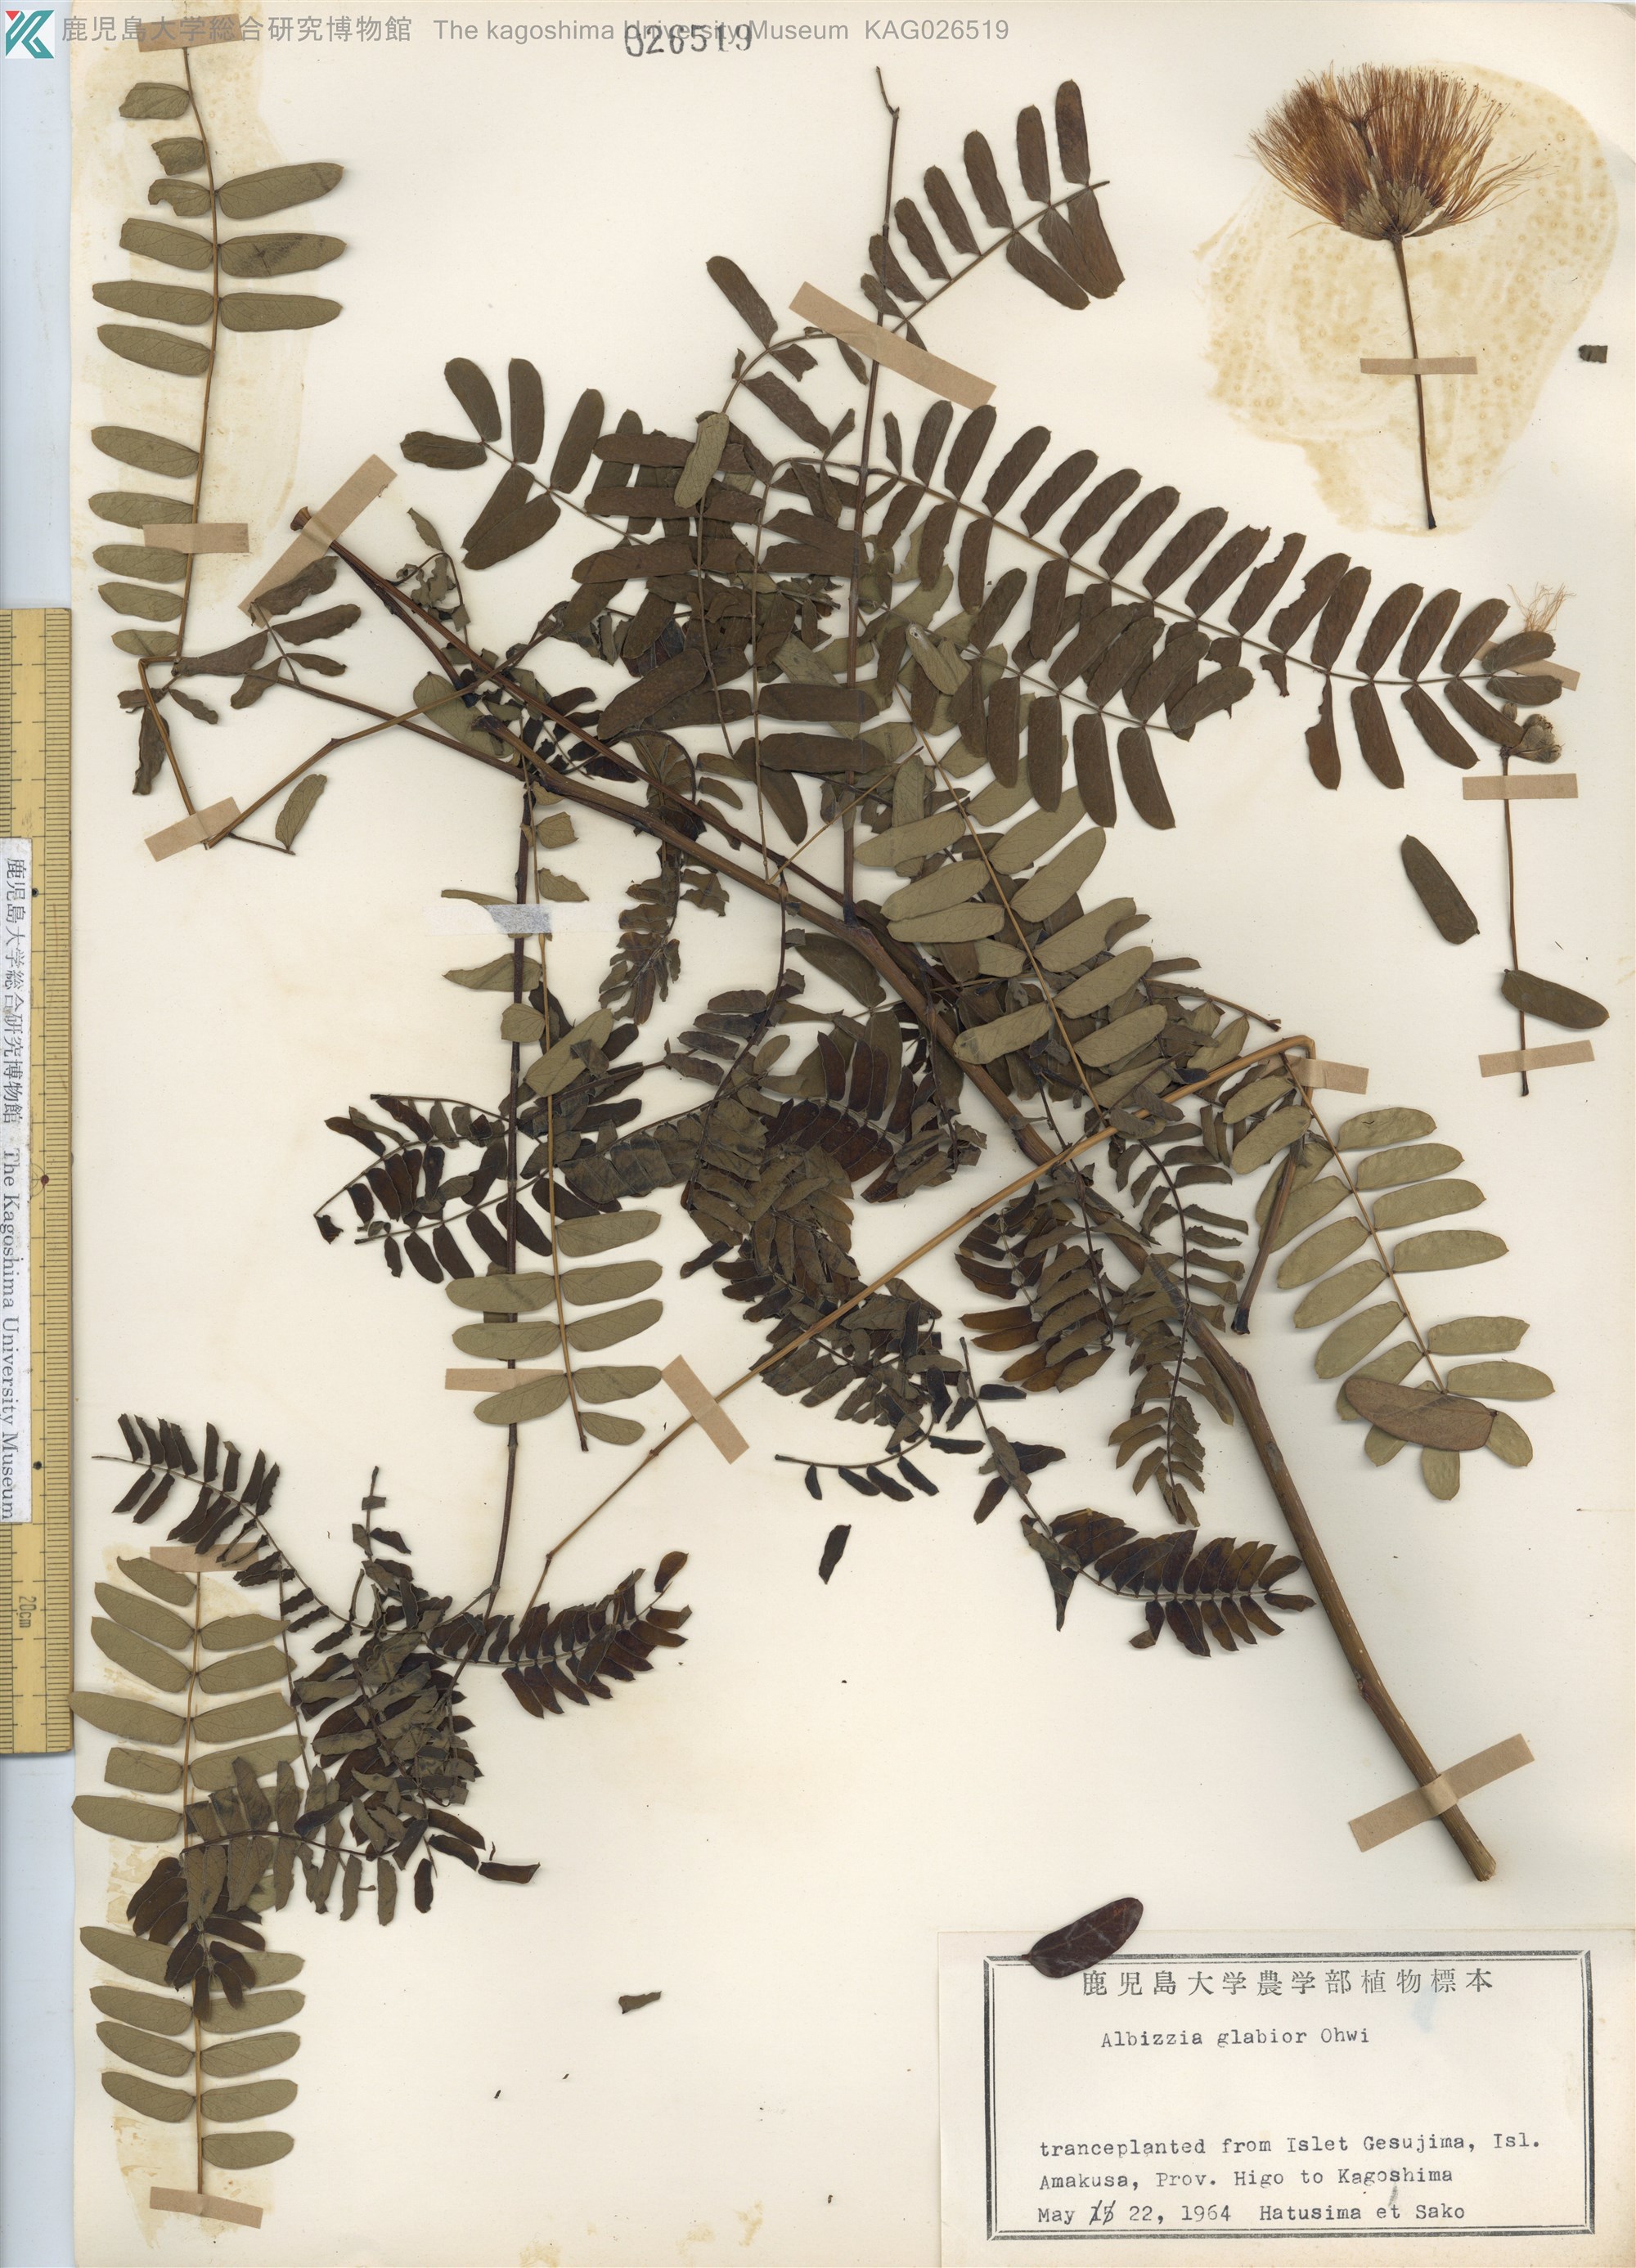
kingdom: Plantae
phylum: Tracheophyta
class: Magnoliopsida
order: Fabales
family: Fabaceae
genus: Albizia
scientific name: Albizia kalkora
